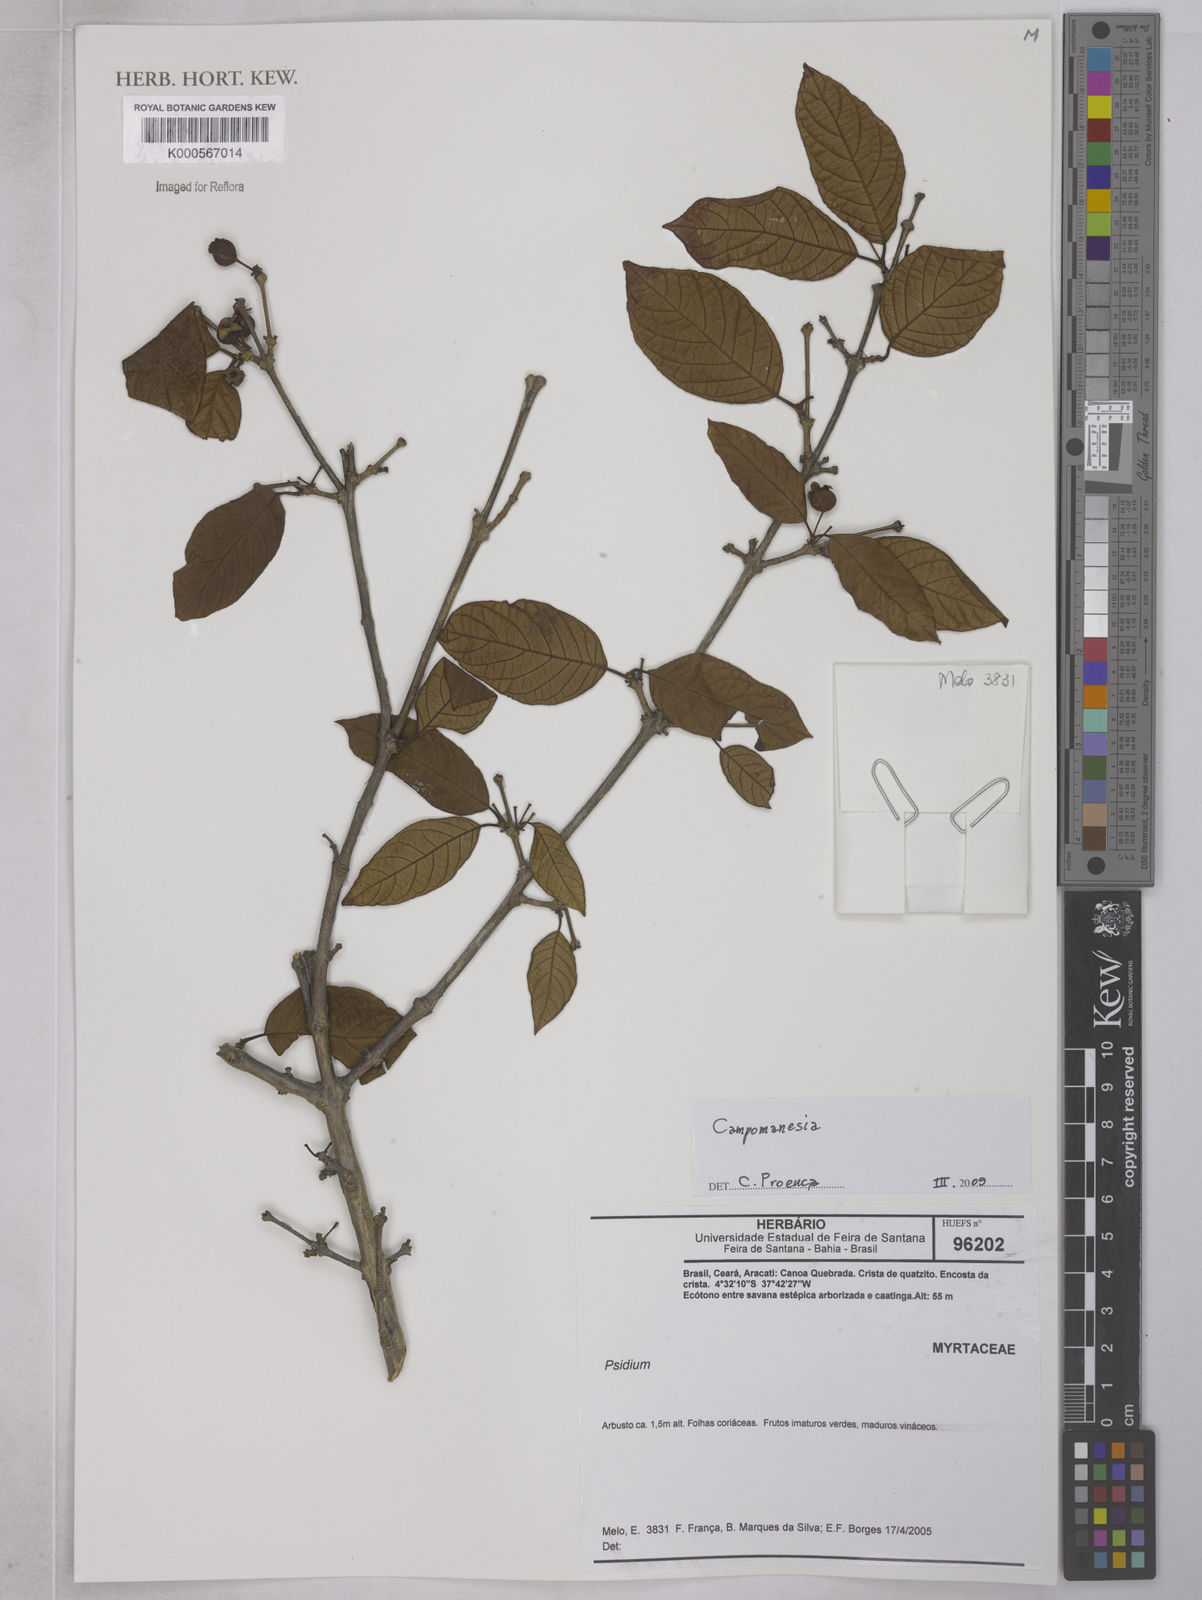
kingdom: Plantae
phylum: Tracheophyta
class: Magnoliopsida
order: Myrtales
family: Myrtaceae
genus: Campomanesia
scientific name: Campomanesia
